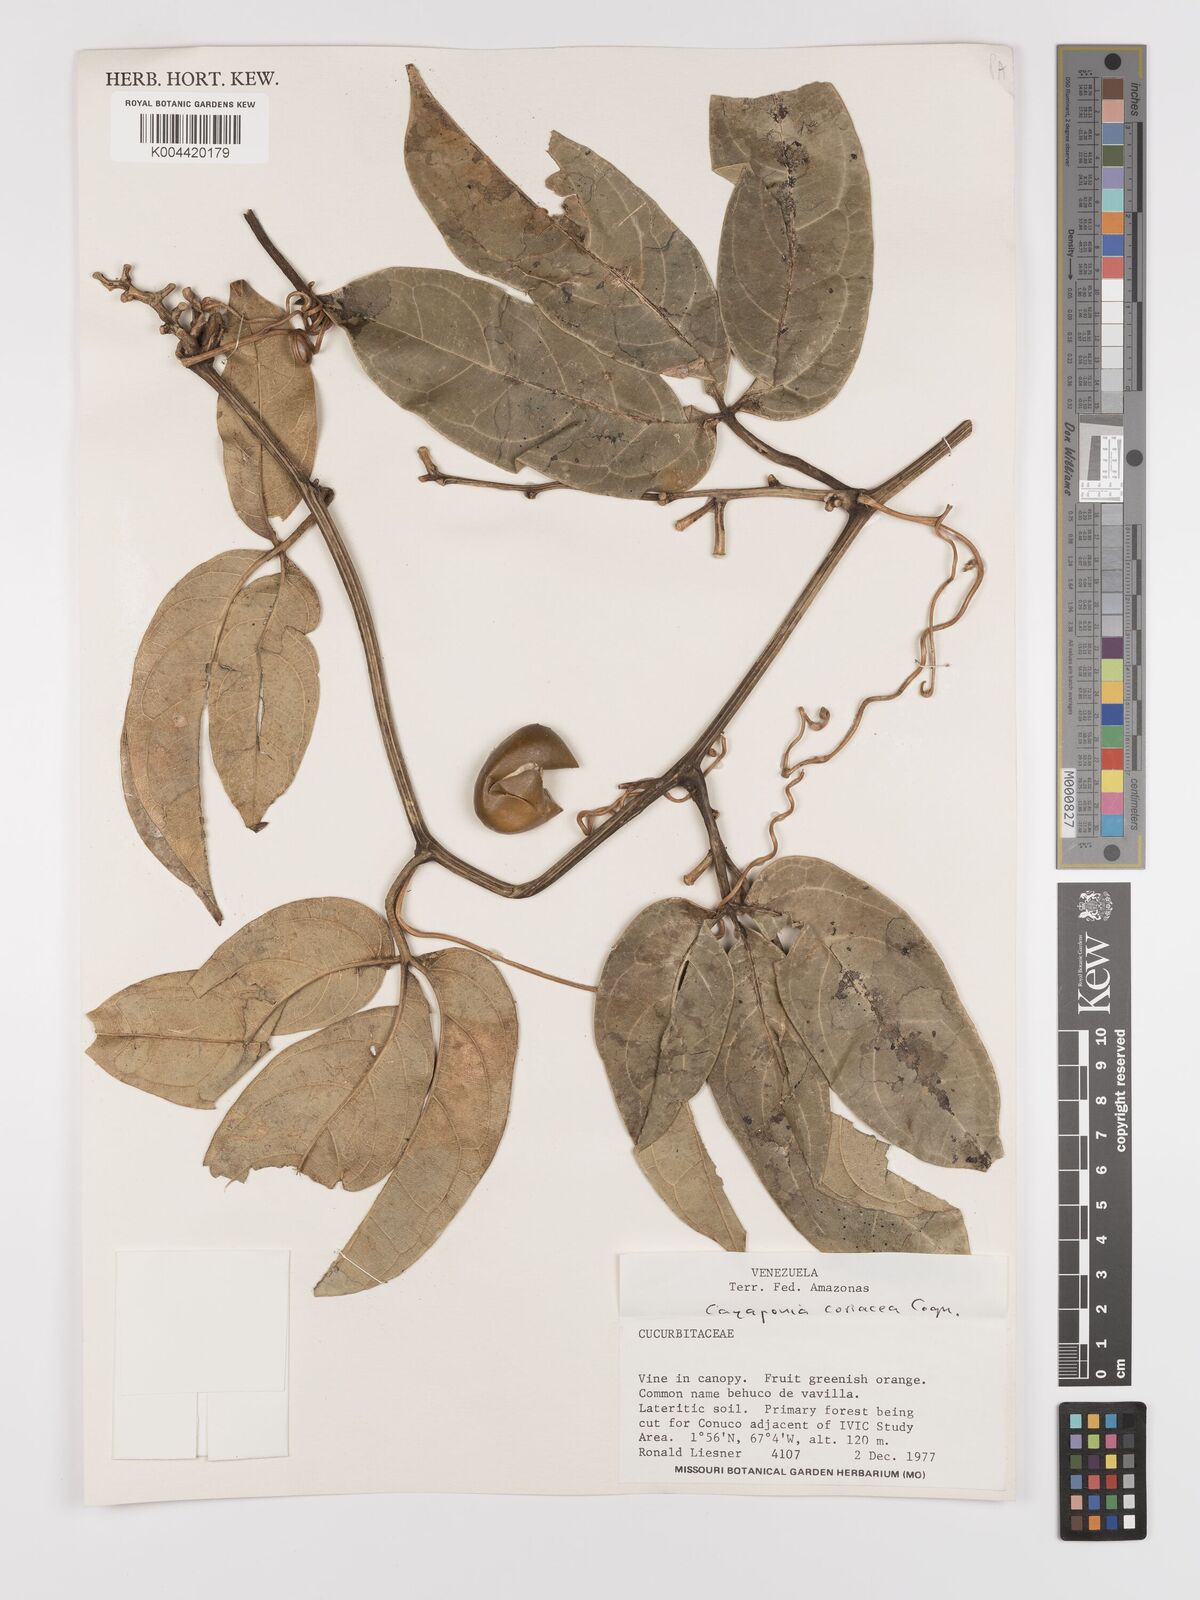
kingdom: Plantae
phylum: Tracheophyta
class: Magnoliopsida
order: Cucurbitales
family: Cucurbitaceae
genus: Cayaponia
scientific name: Cayaponia coriacea
